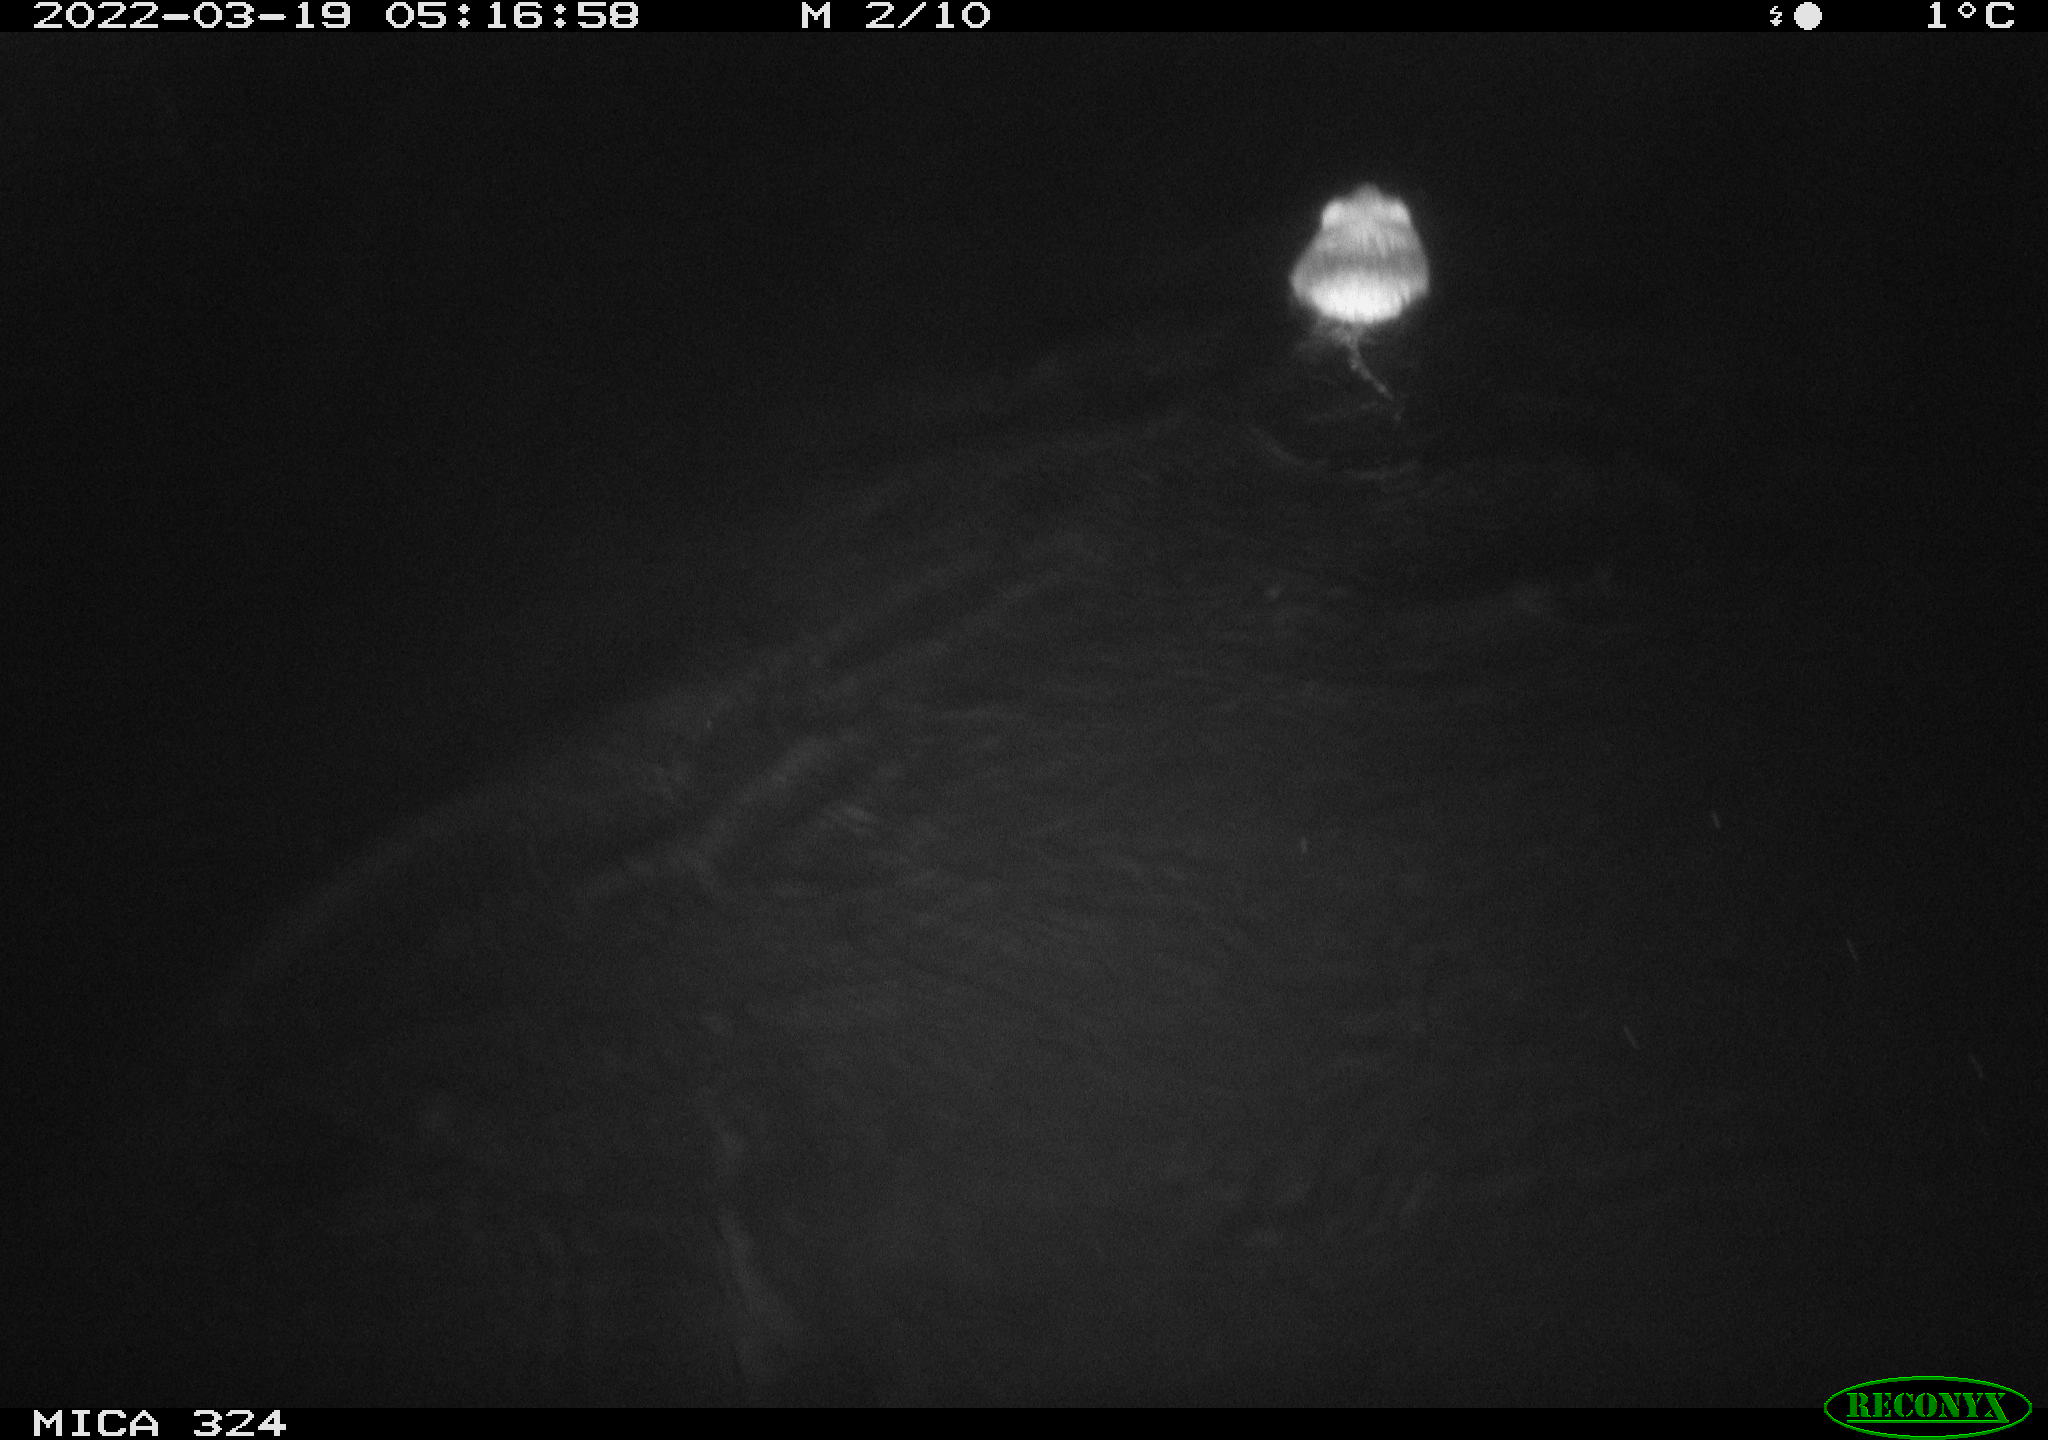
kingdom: Animalia
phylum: Chordata
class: Mammalia
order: Rodentia
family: Cricetidae
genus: Ondatra
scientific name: Ondatra zibethicus
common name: Muskrat
